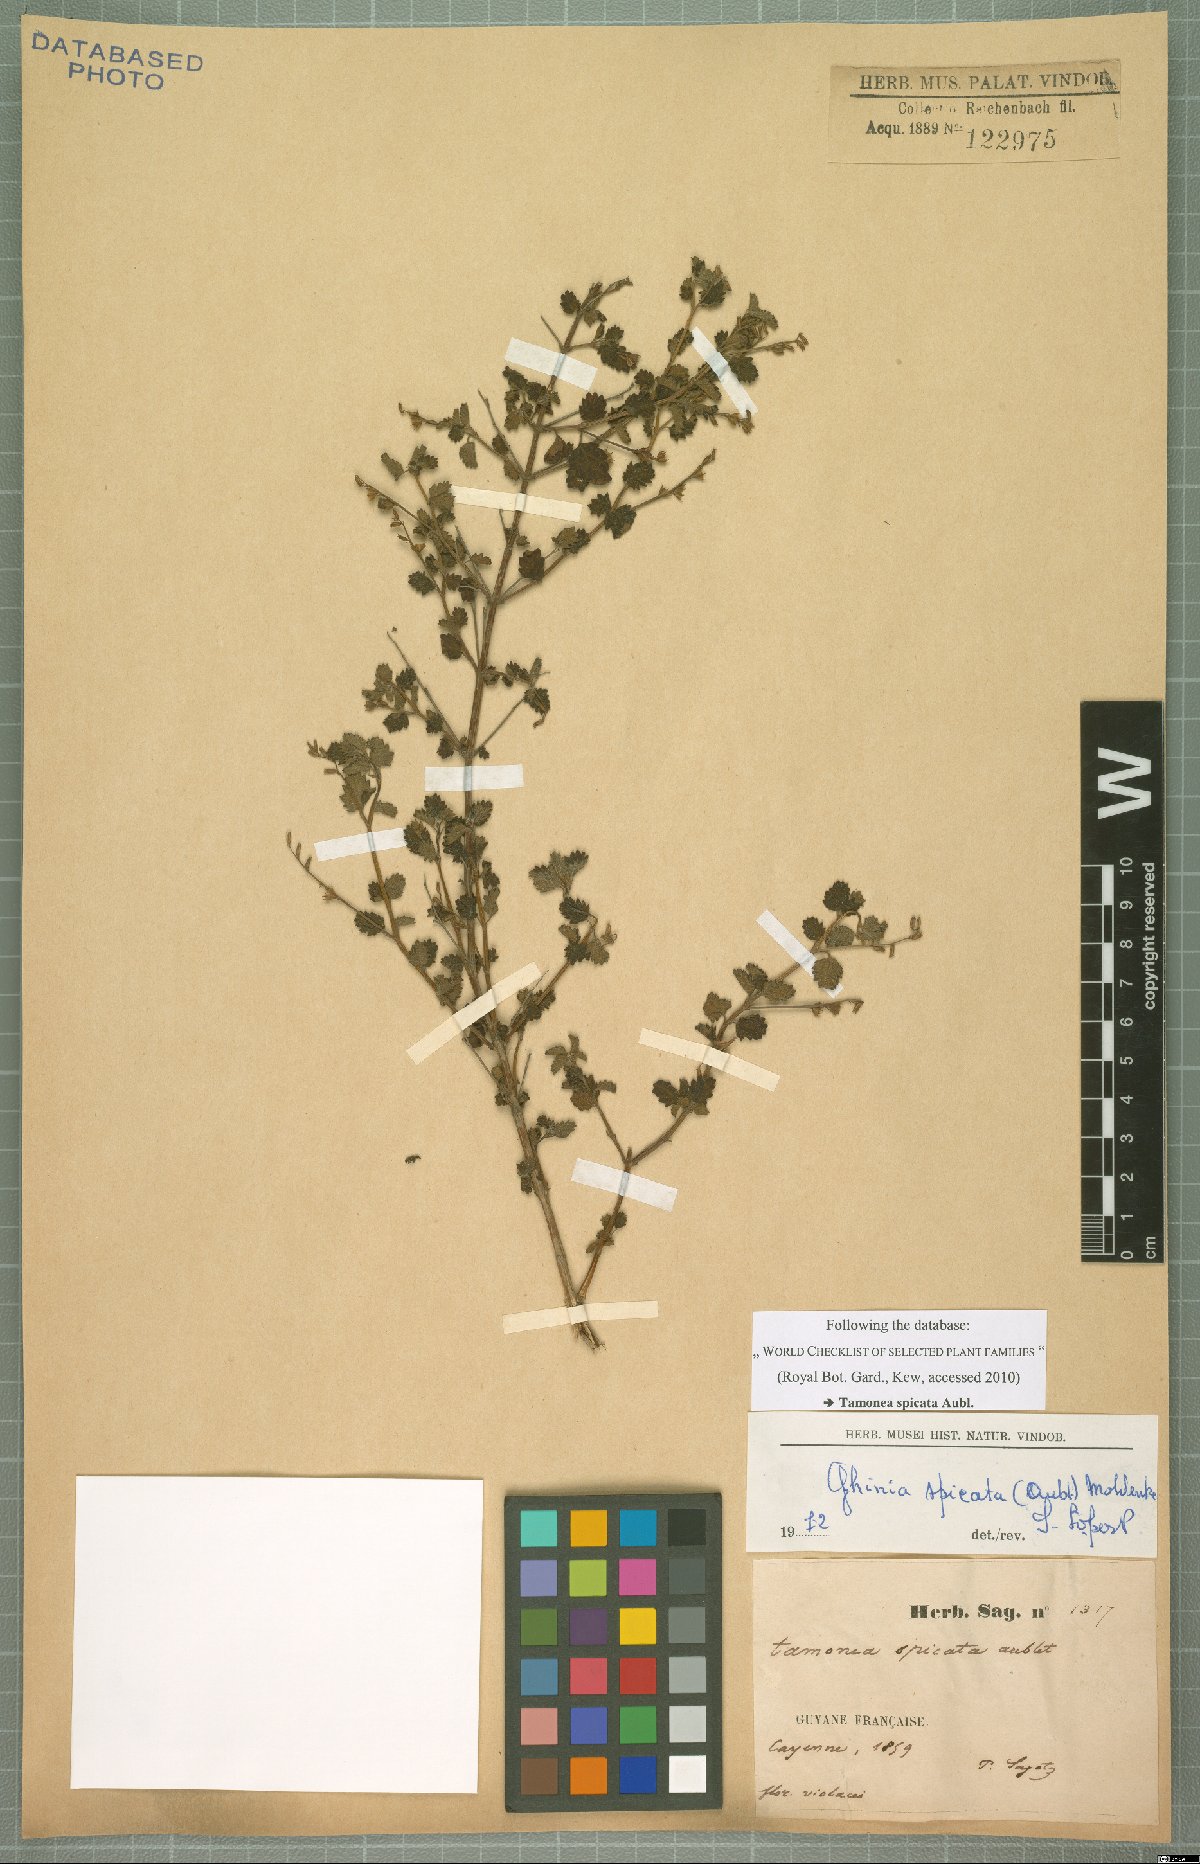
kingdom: Plantae
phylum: Tracheophyta
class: Magnoliopsida
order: Lamiales
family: Verbenaceae
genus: Tamonea
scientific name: Tamonea spicata
